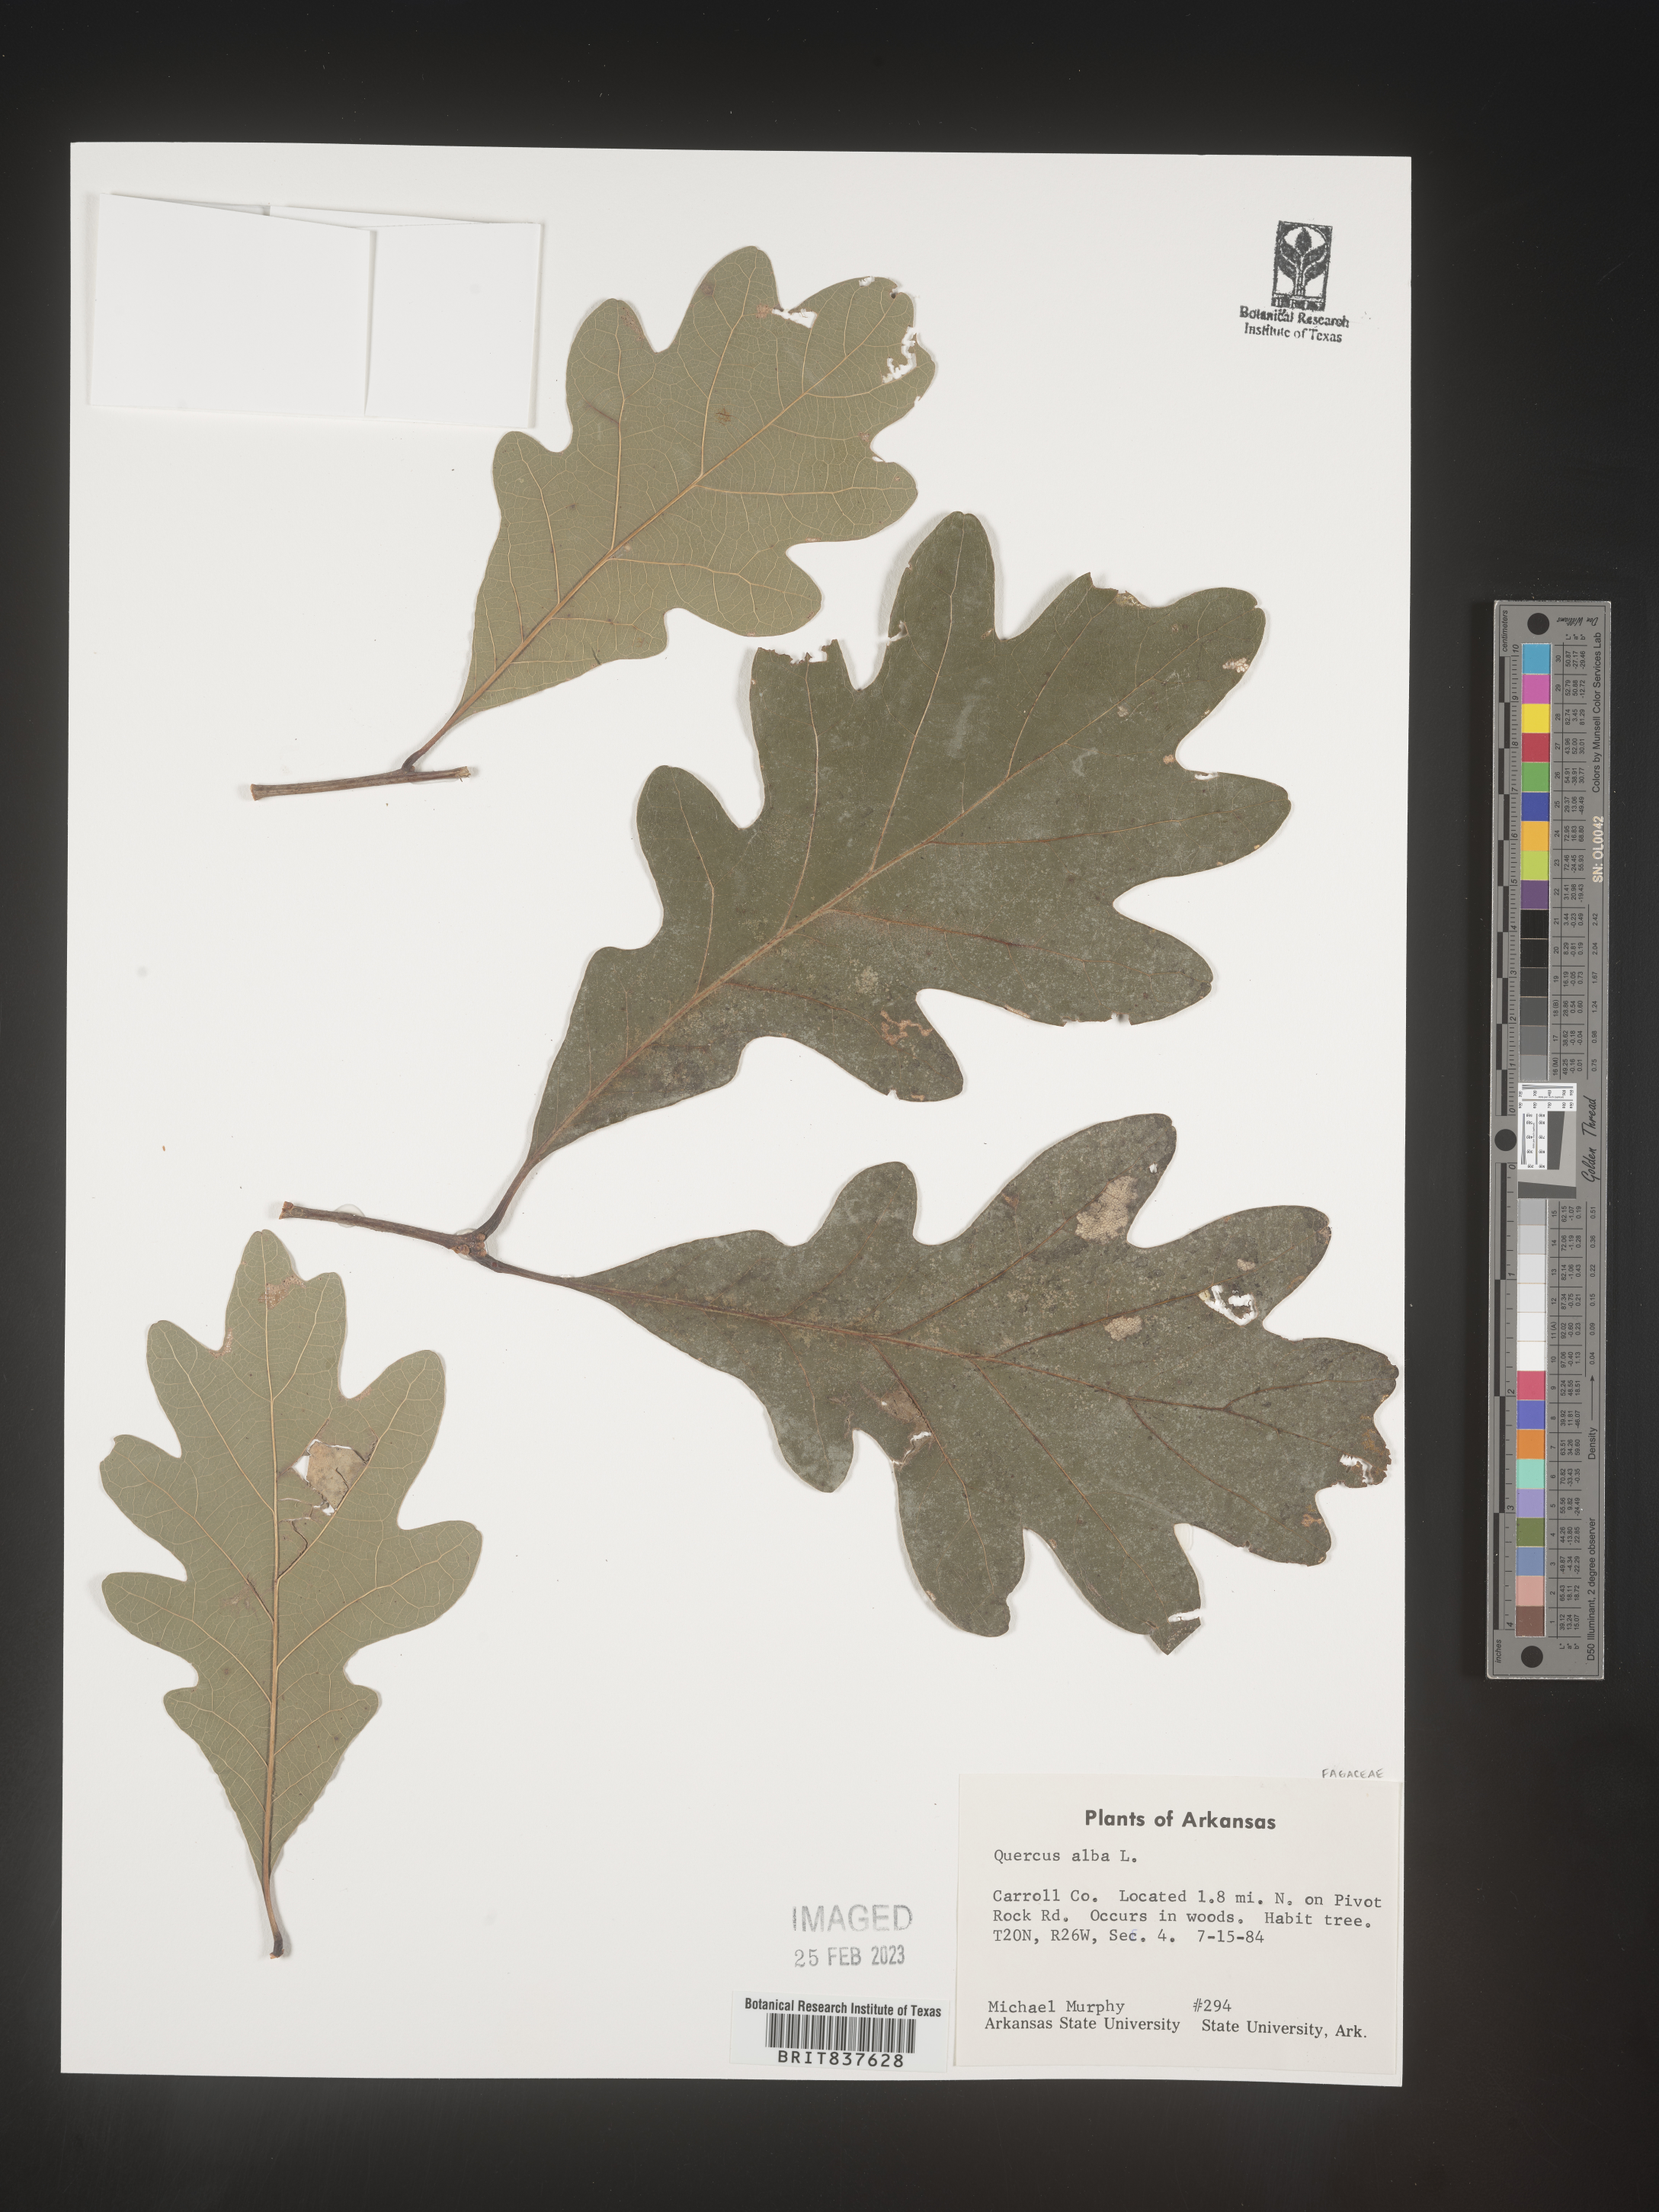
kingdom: Plantae
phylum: Tracheophyta
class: Magnoliopsida
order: Fagales
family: Fagaceae
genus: Quercus
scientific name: Quercus alba
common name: White oak
